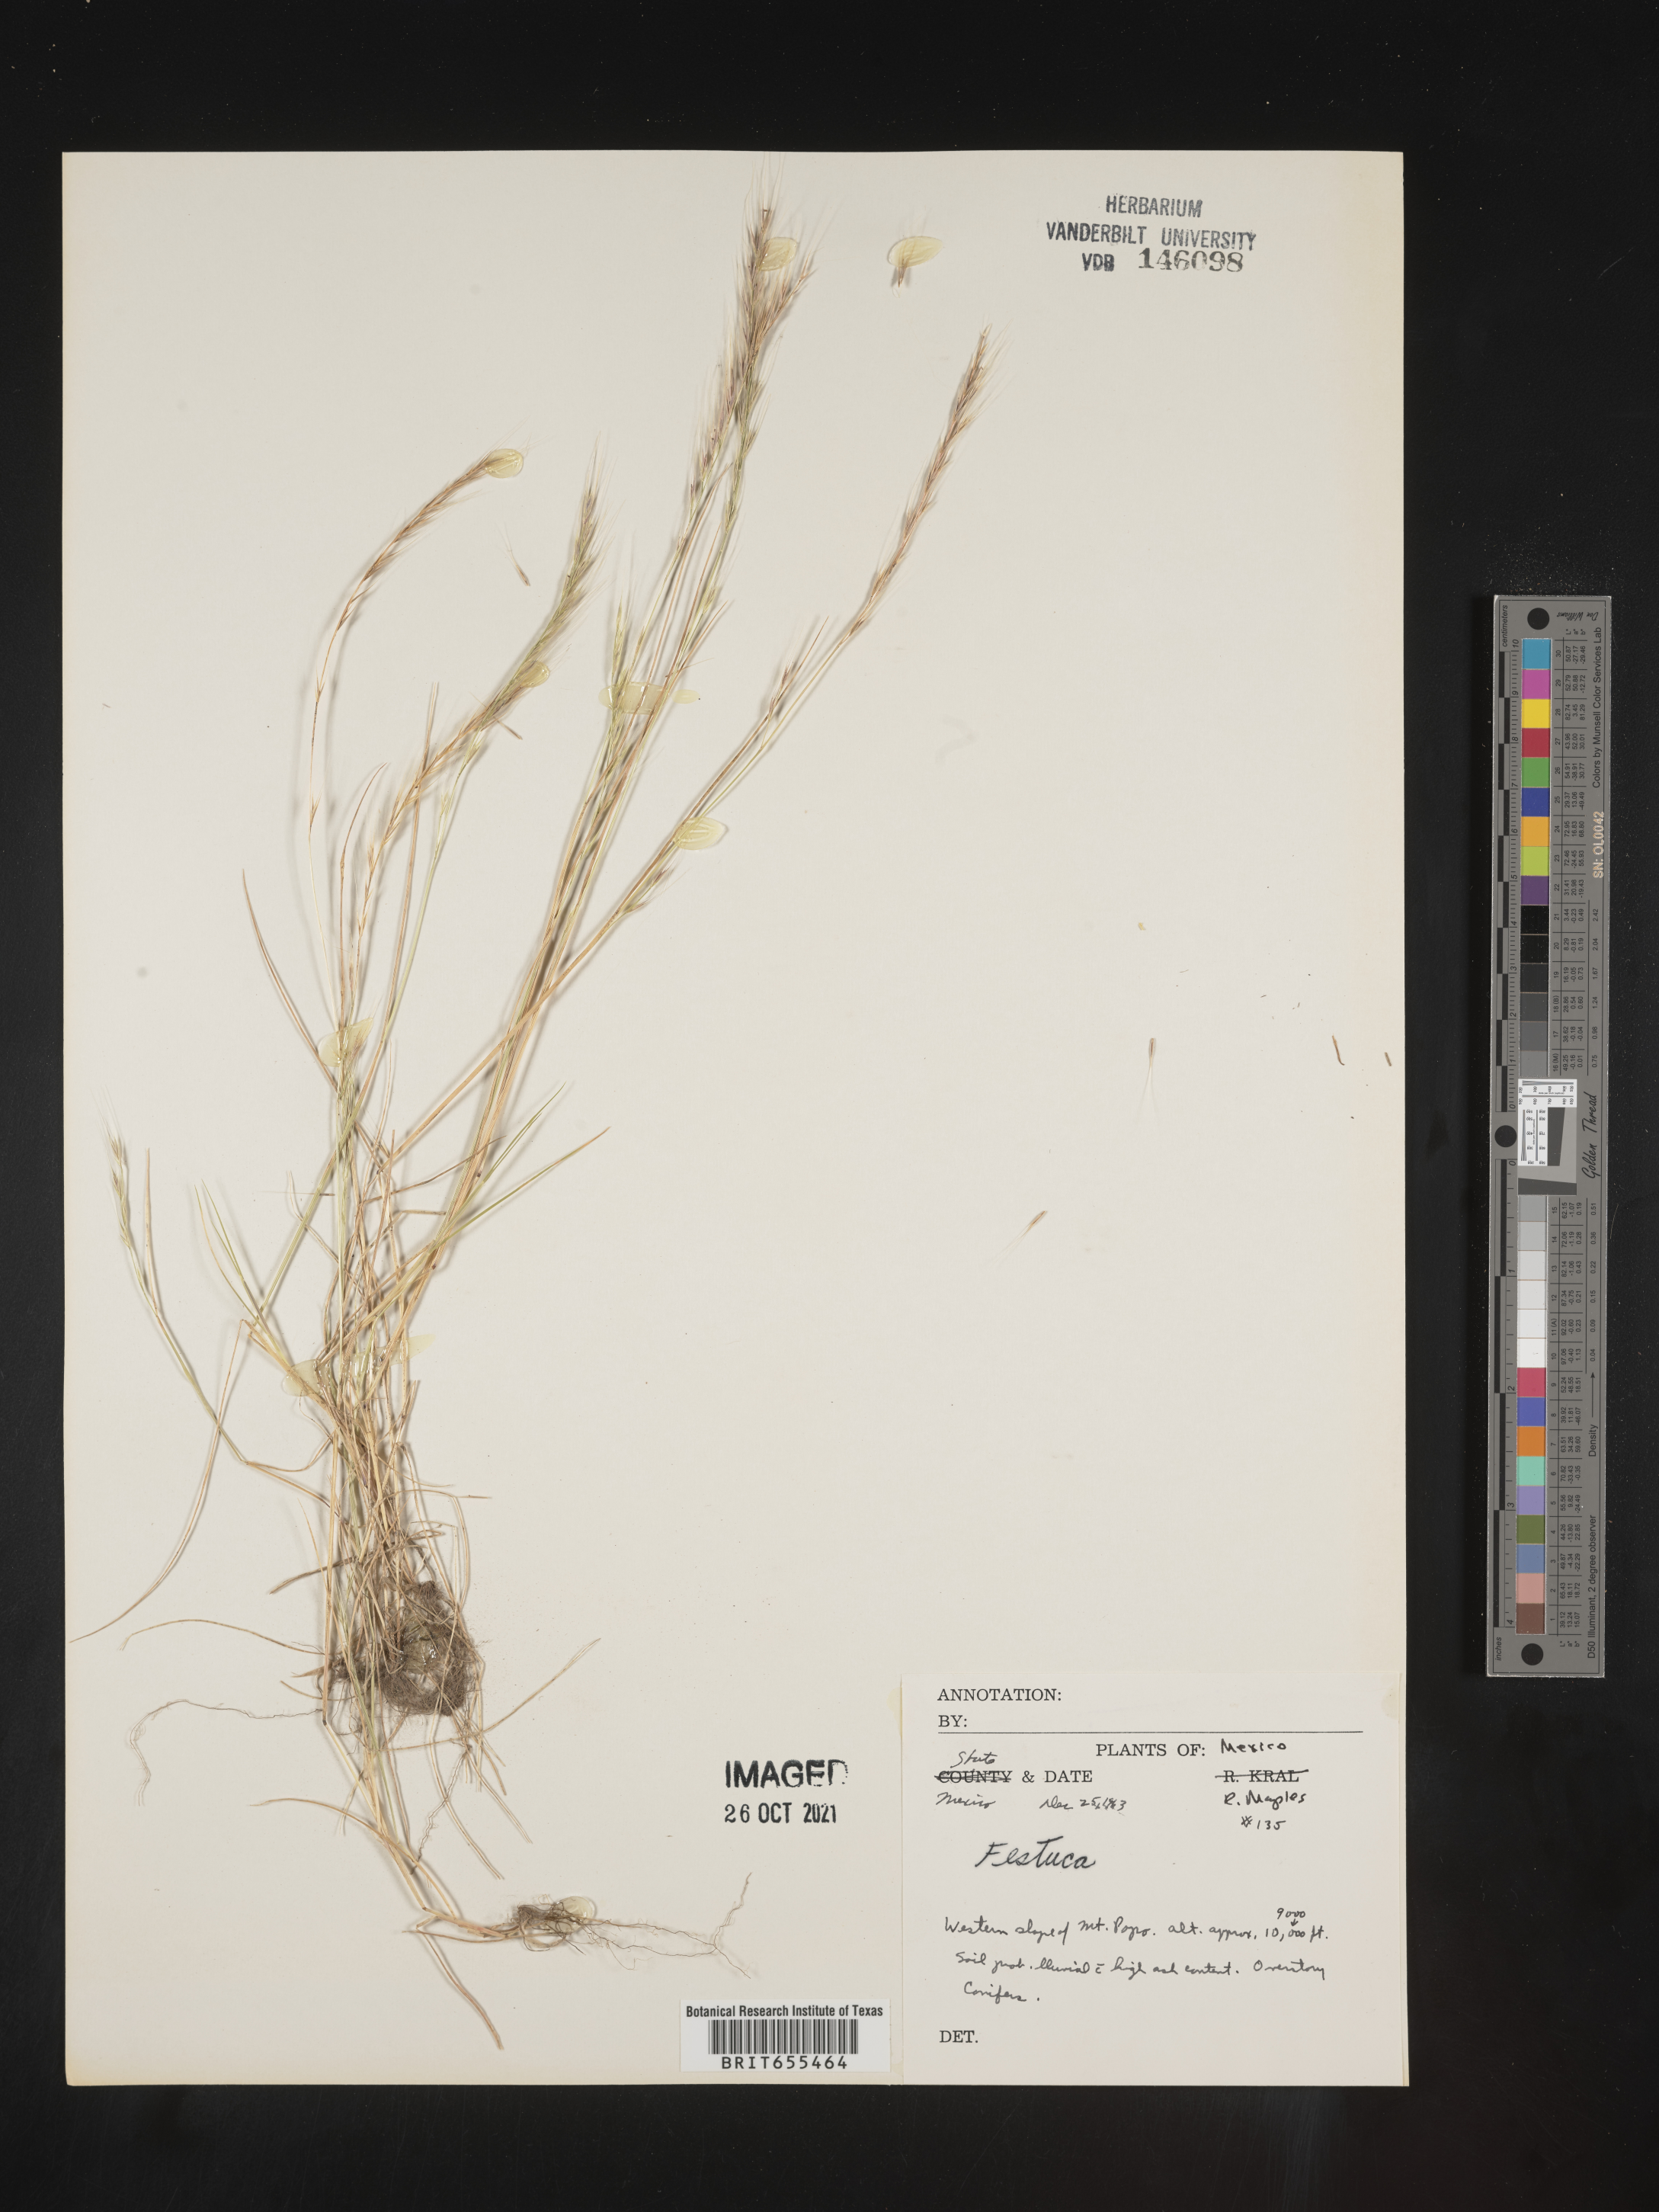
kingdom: Plantae
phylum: Tracheophyta
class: Liliopsida
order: Poales
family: Poaceae
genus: Festuca
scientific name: Festuca
